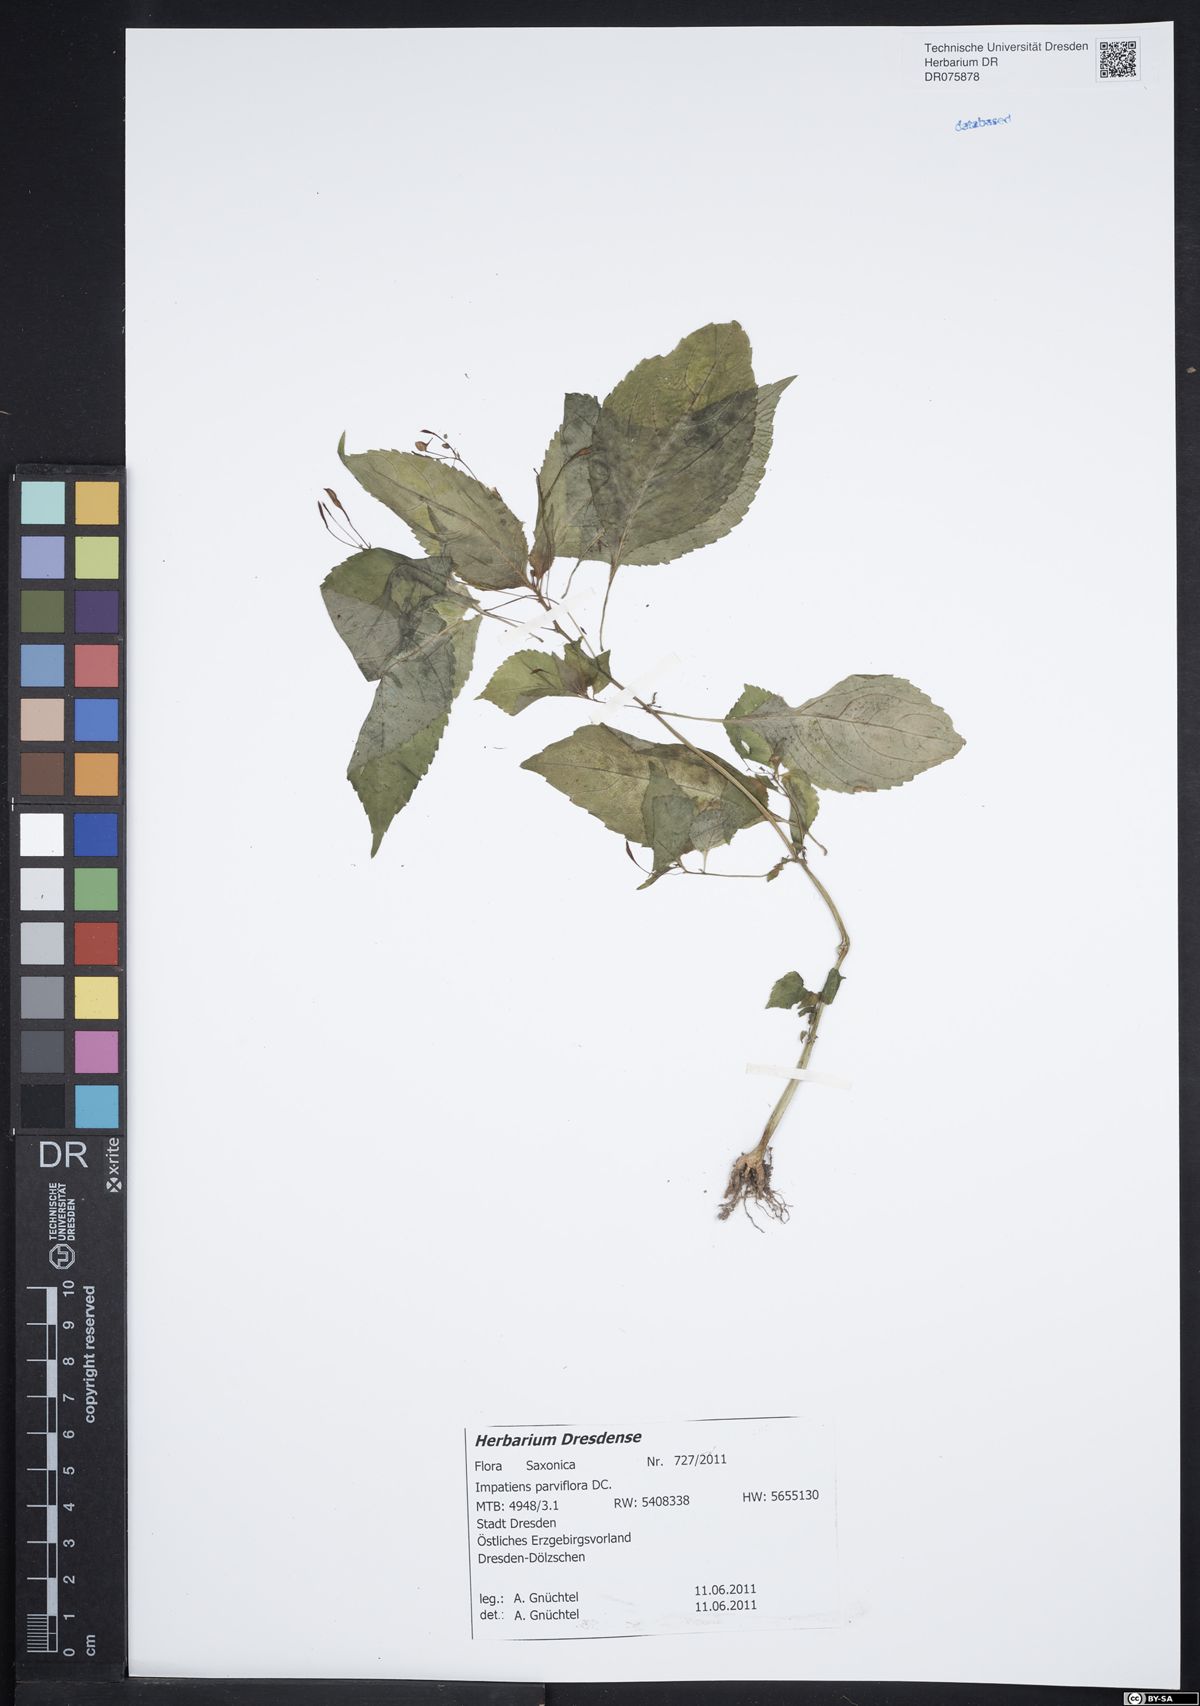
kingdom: Plantae
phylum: Tracheophyta
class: Magnoliopsida
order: Ericales
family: Balsaminaceae
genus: Impatiens
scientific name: Impatiens parviflora
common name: Small balsam
